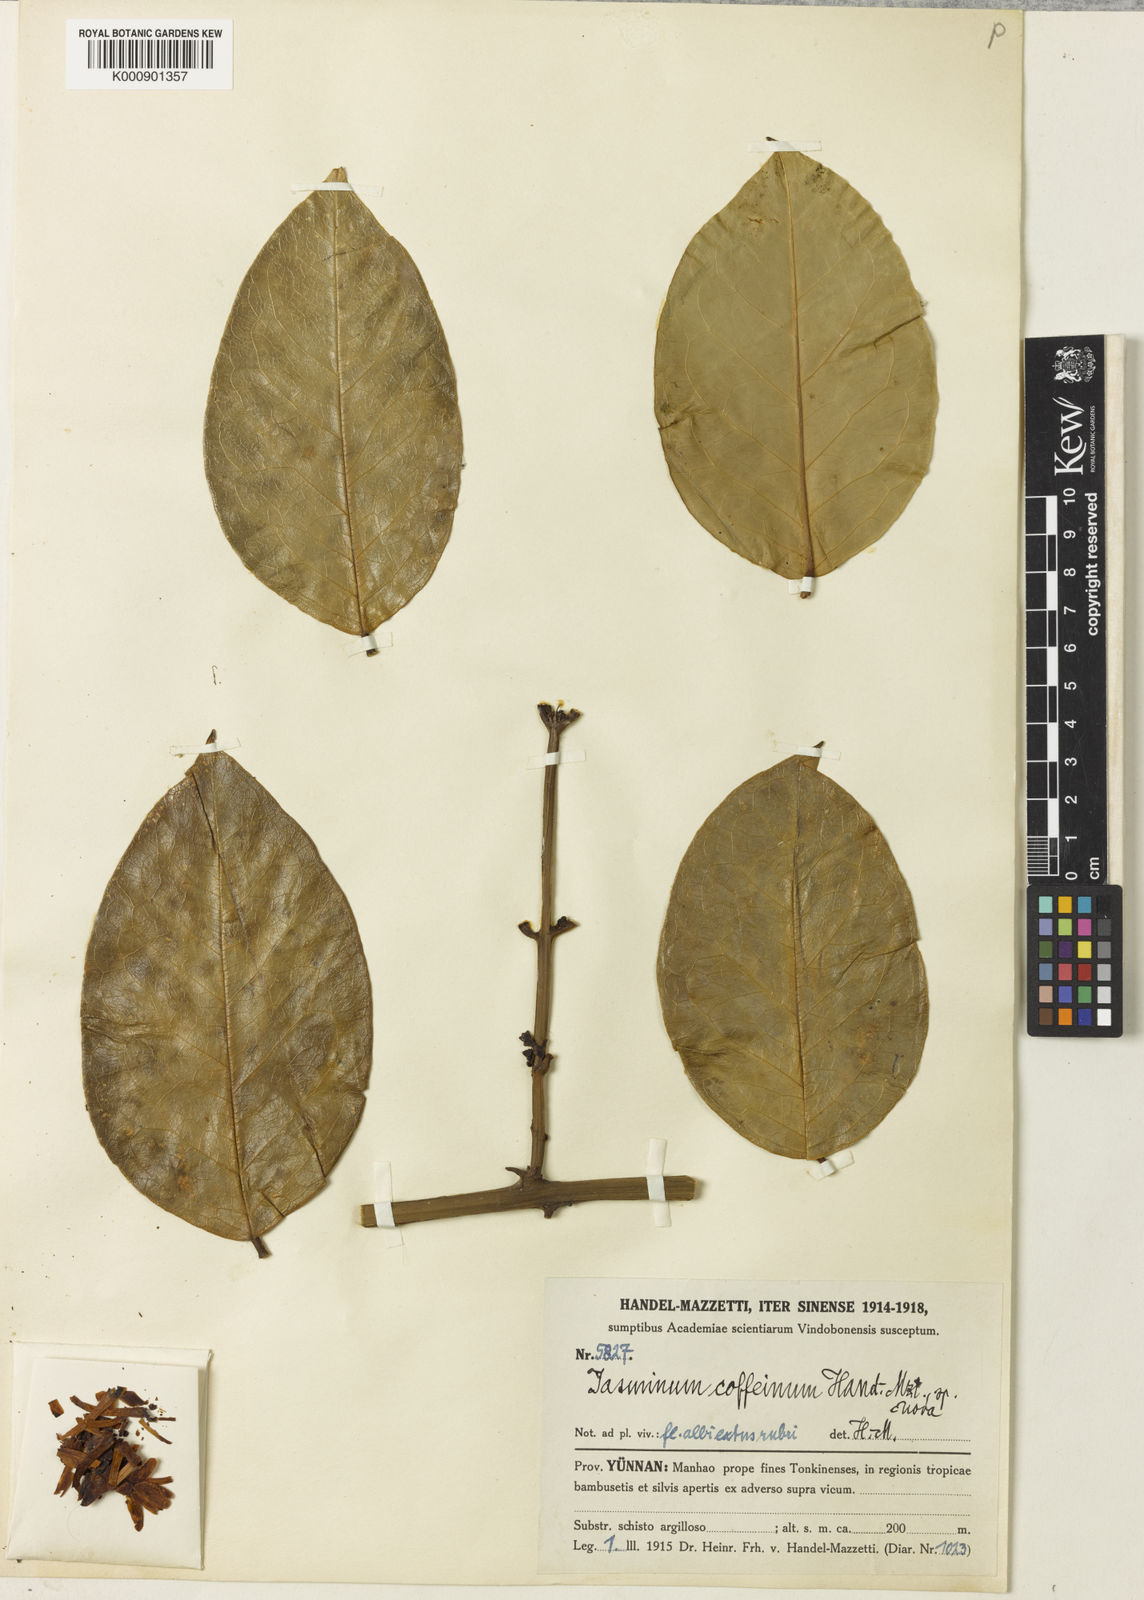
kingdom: Plantae
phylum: Tracheophyta
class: Magnoliopsida
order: Lamiales
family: Oleaceae
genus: Jasminum
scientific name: Jasminum coffeinum
